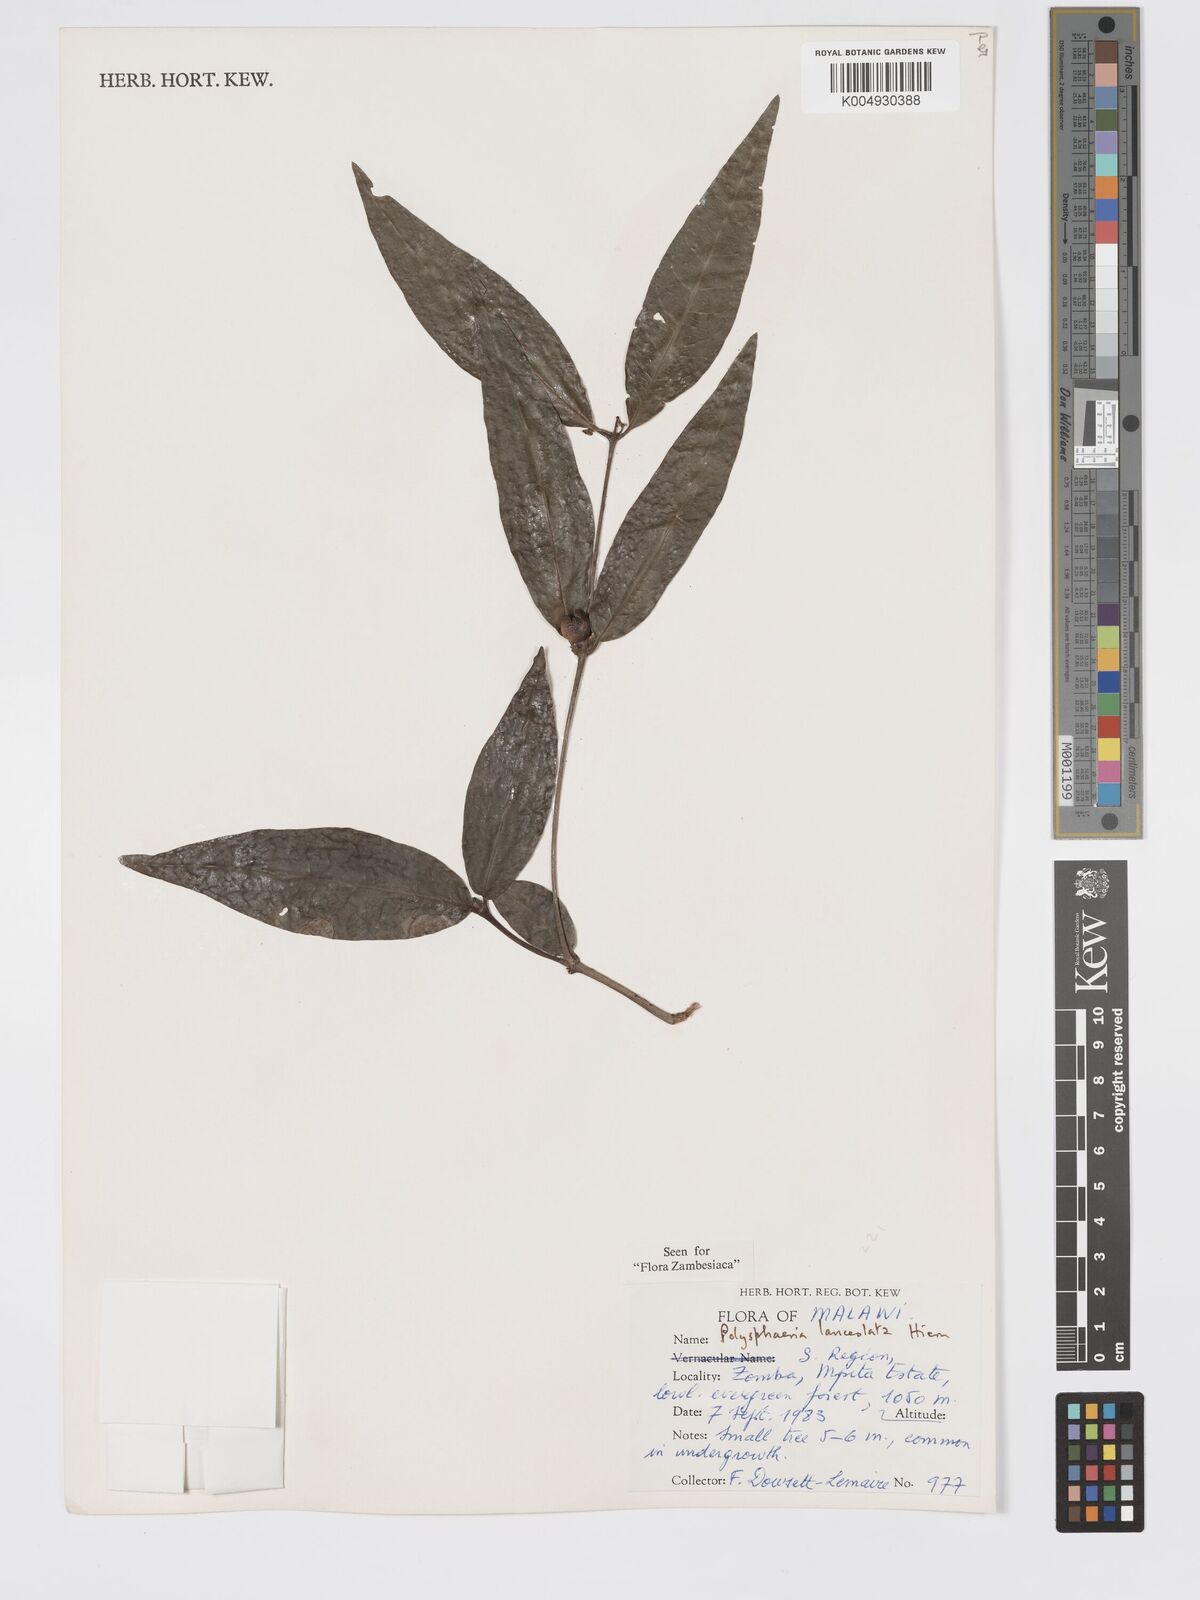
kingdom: Plantae
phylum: Tracheophyta
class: Magnoliopsida
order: Gentianales
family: Rubiaceae
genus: Polysphaeria
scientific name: Polysphaeria lanceolata
